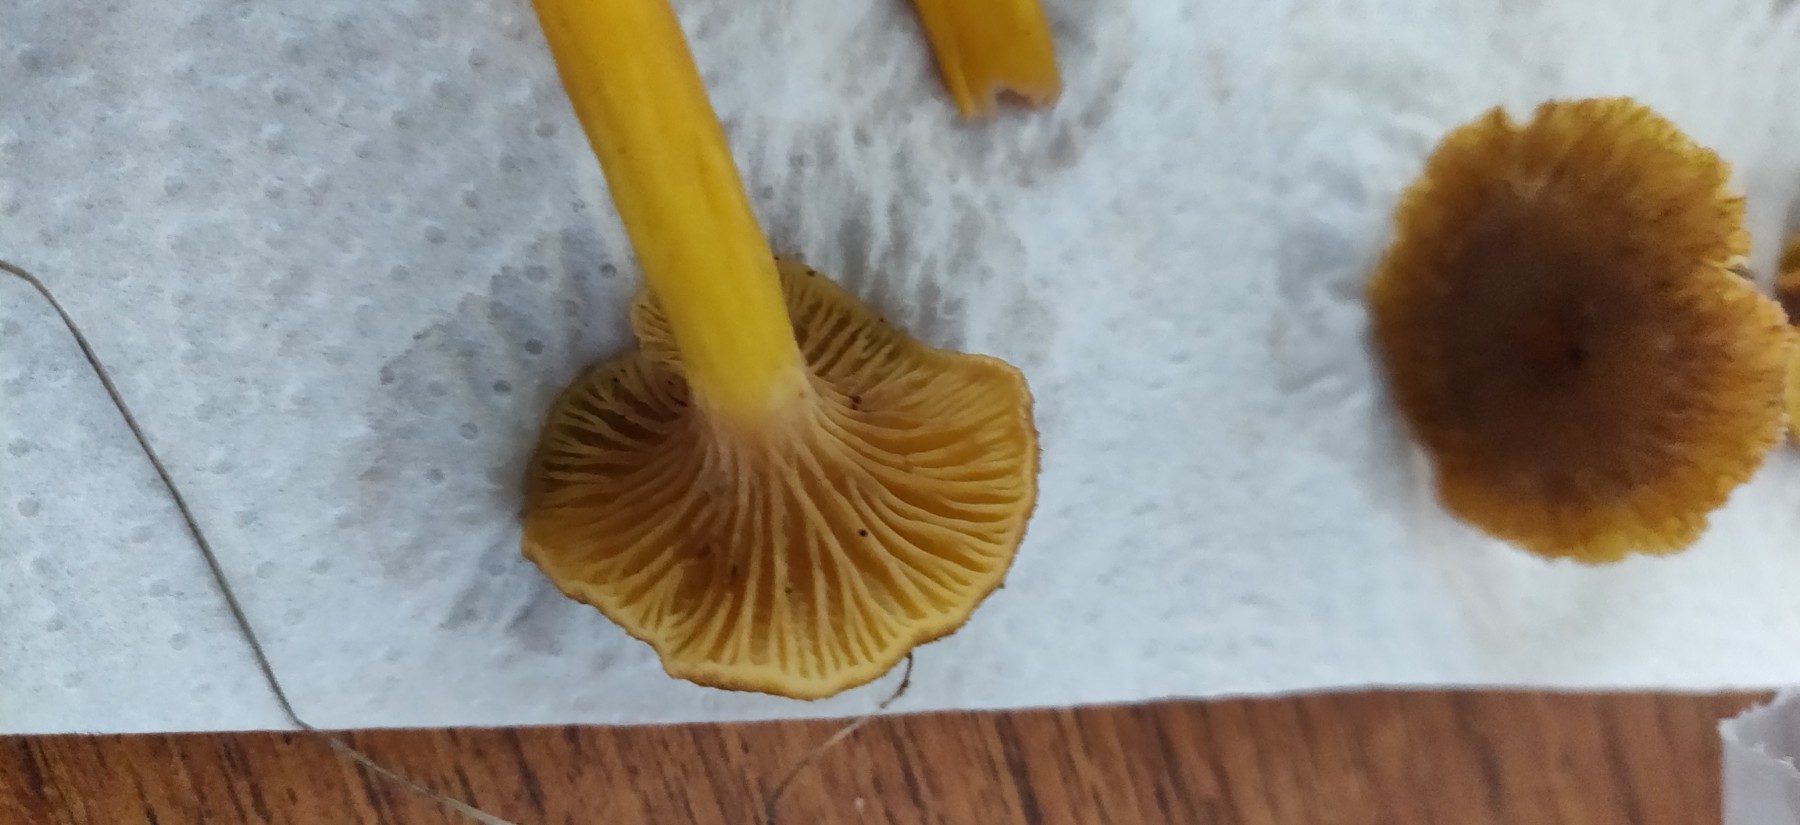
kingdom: Fungi
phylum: Basidiomycota
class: Agaricomycetes
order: Cantharellales
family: Hydnaceae
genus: Craterellus
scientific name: Craterellus tubaeformis
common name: tragt-kantarel
